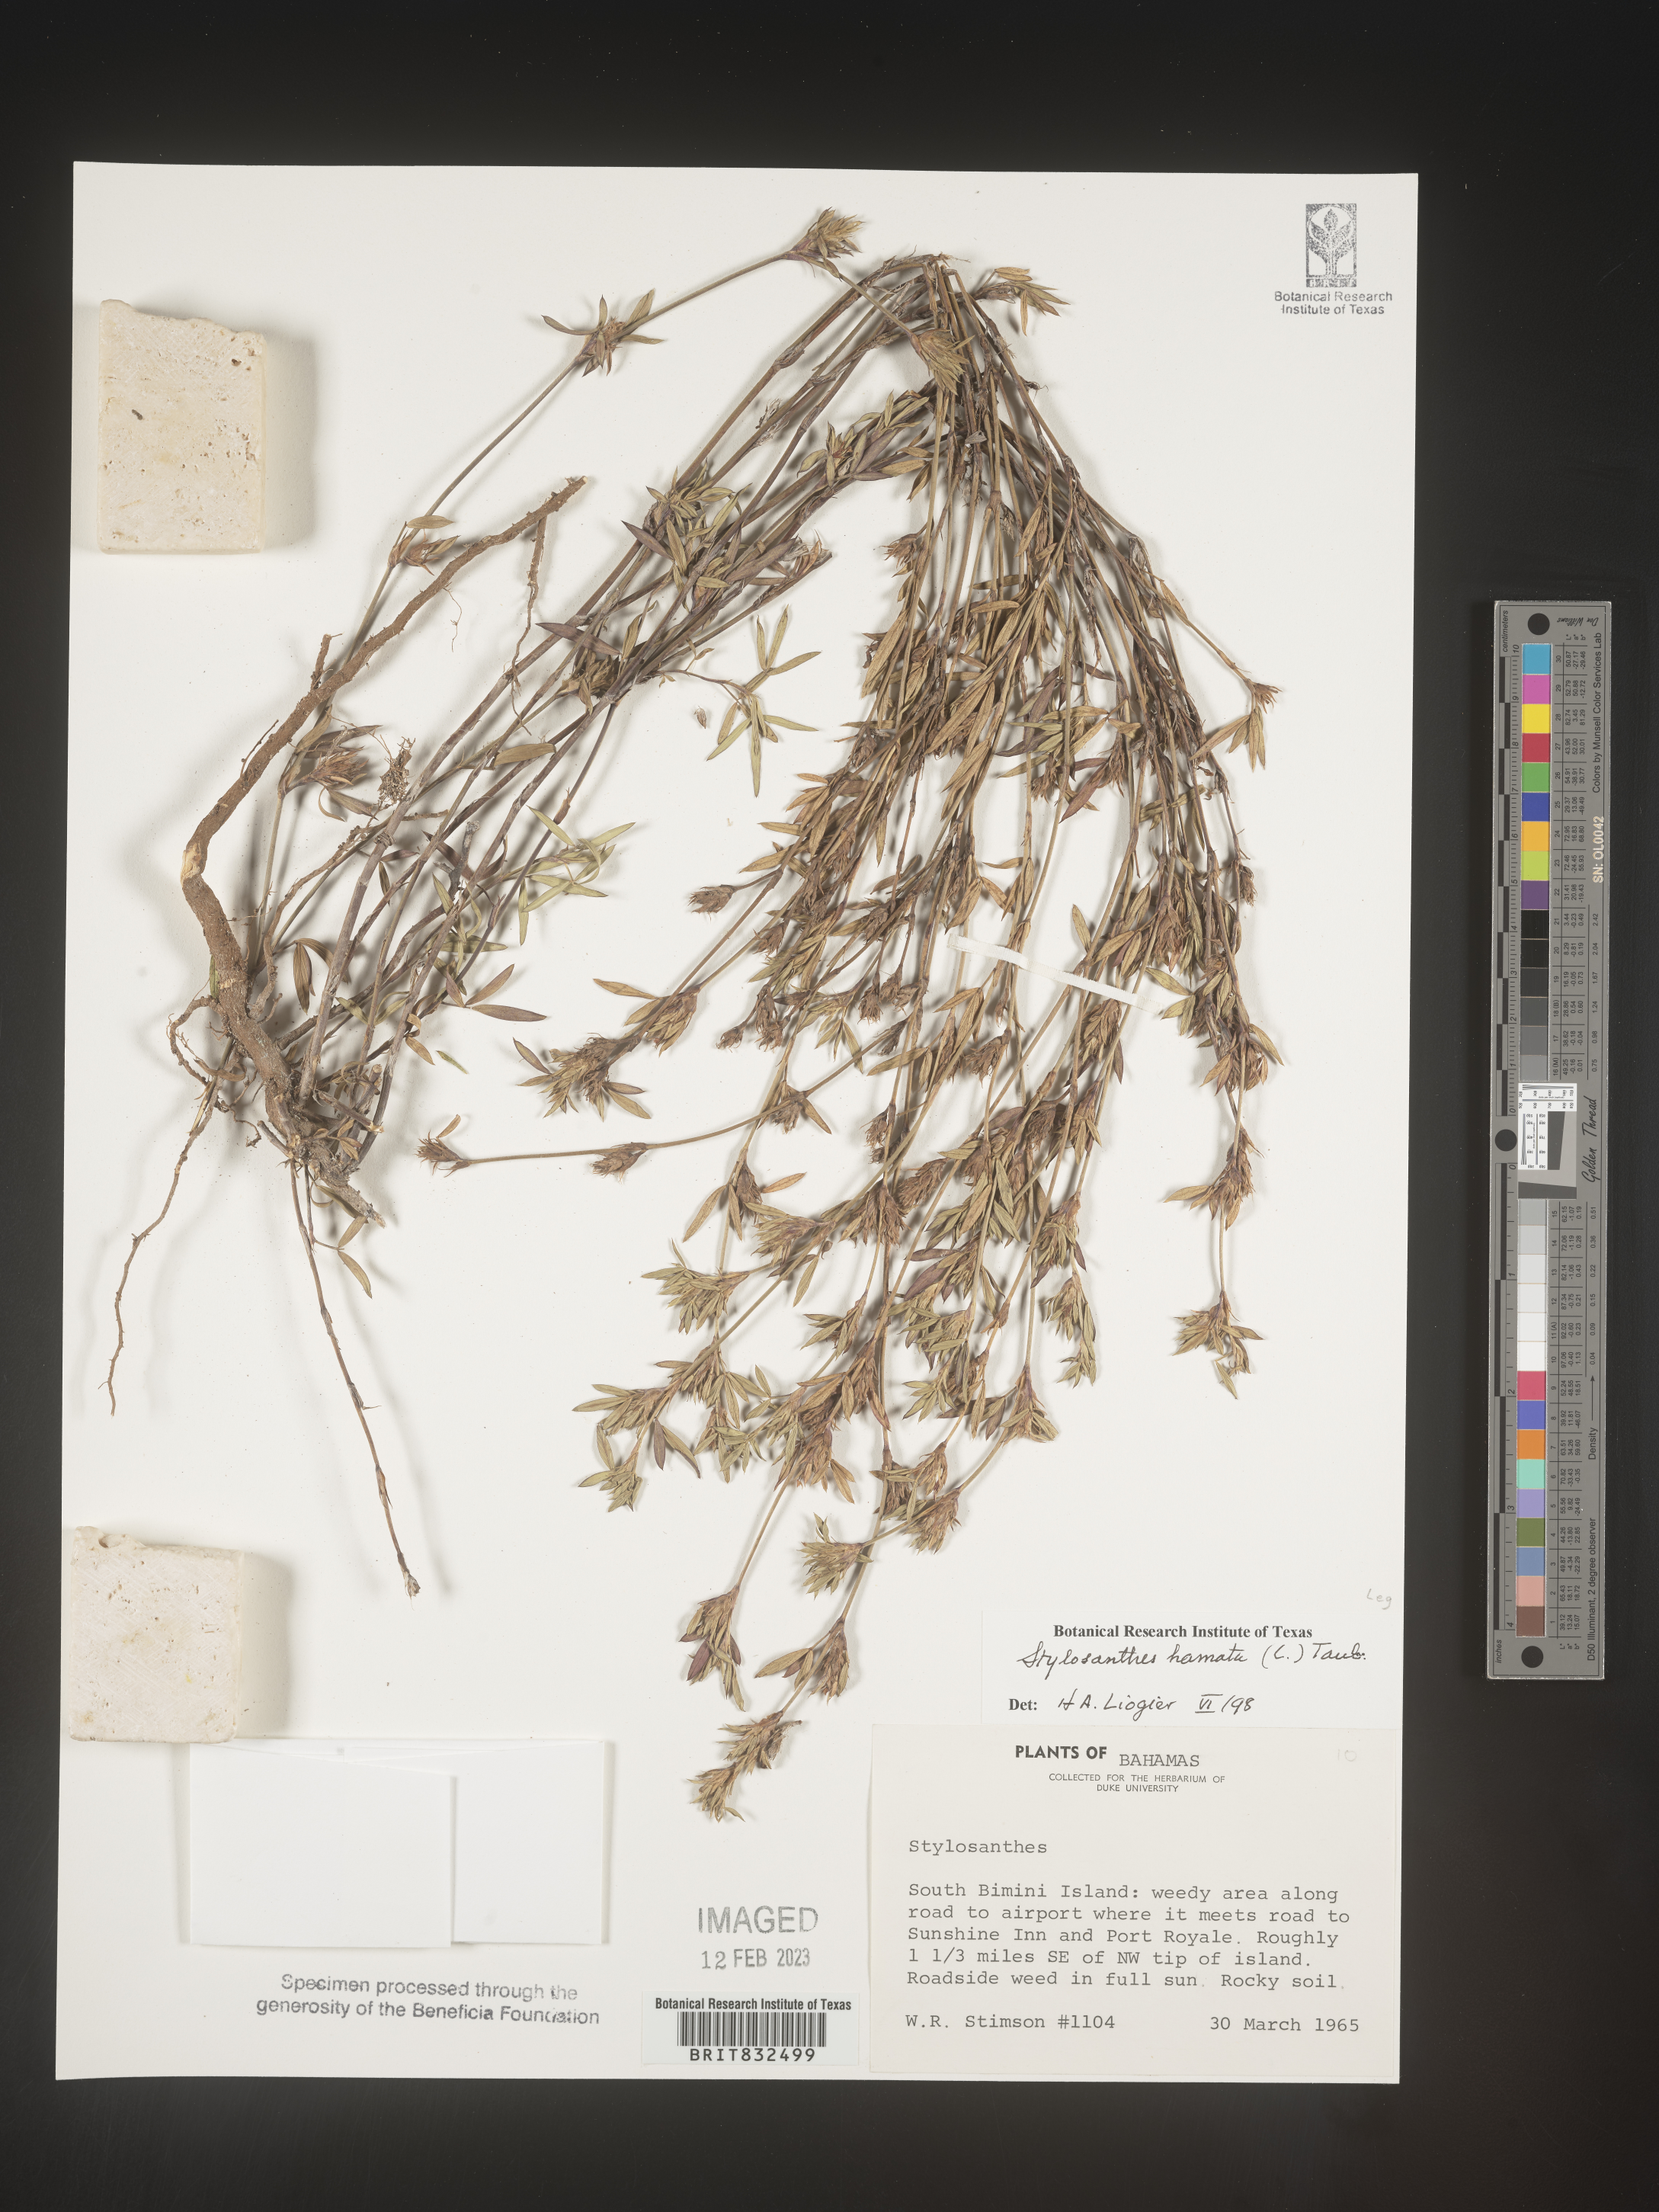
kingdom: Plantae
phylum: Tracheophyta
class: Magnoliopsida
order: Fabales
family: Fabaceae
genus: Stylosanthes
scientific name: Stylosanthes
